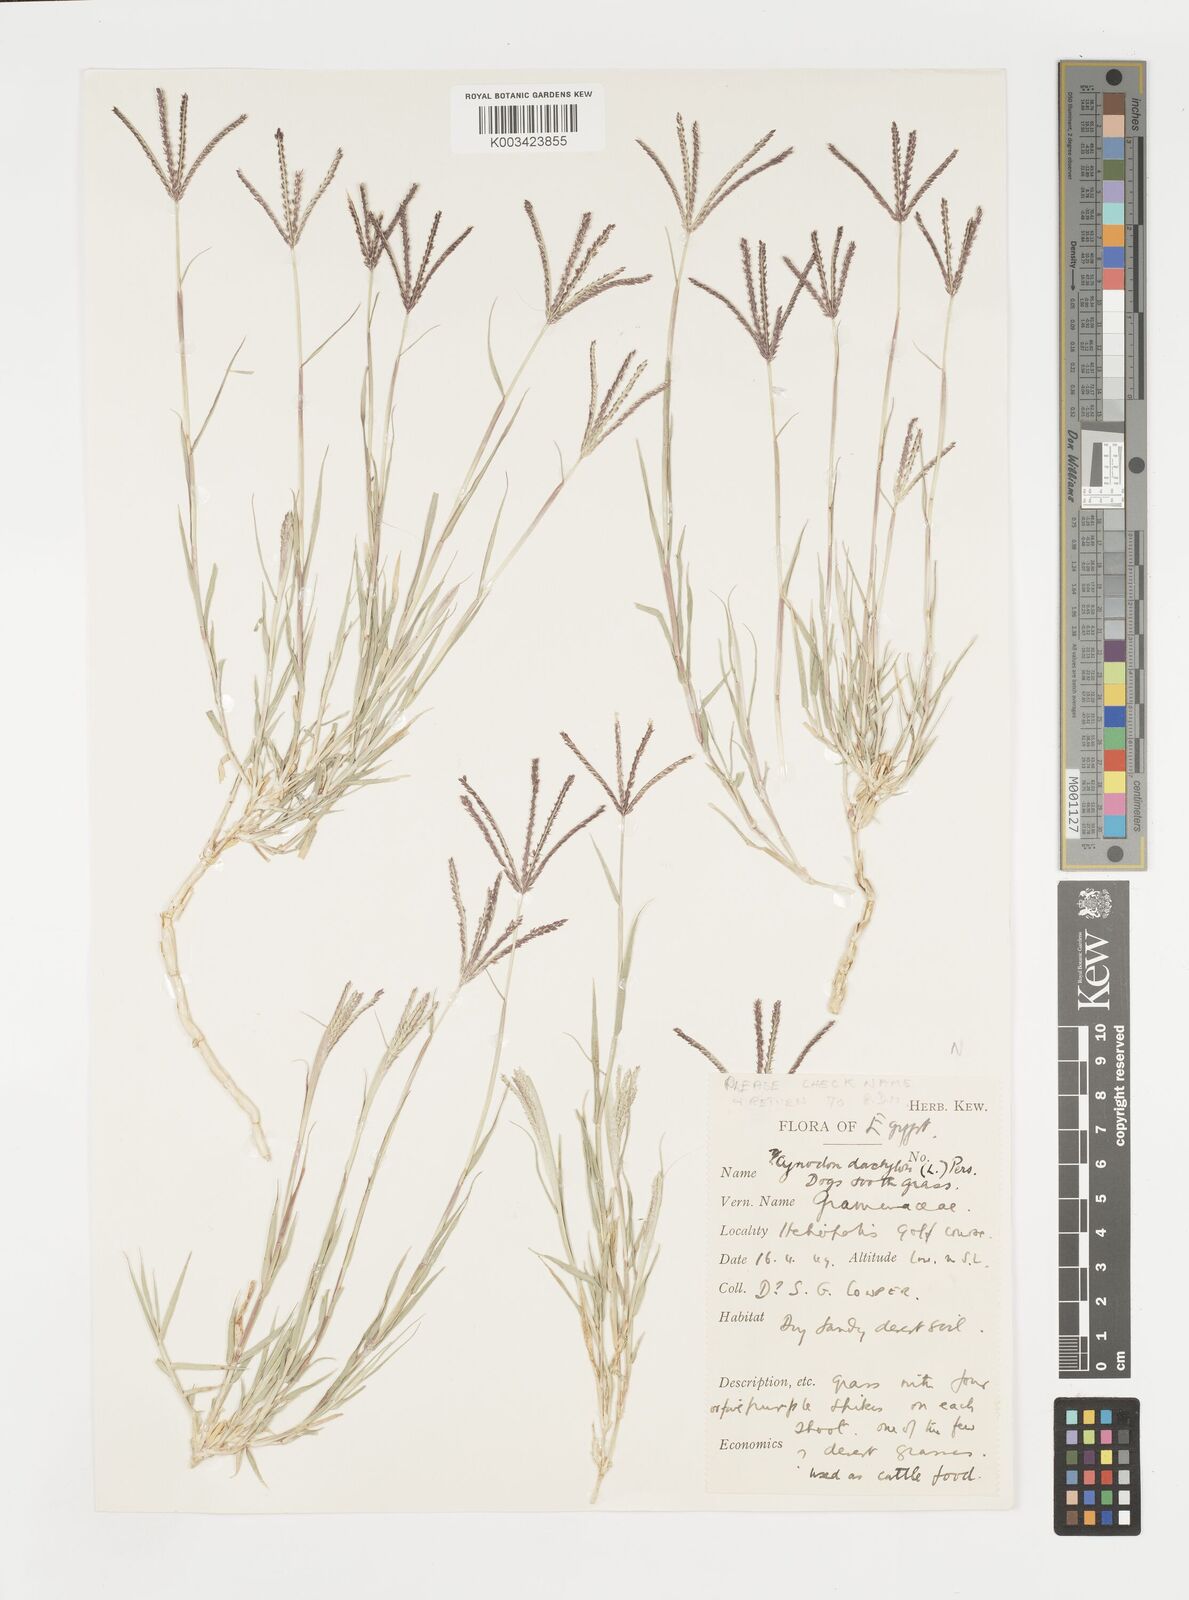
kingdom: Plantae
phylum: Tracheophyta
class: Liliopsida
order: Poales
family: Poaceae
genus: Cynodon
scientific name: Cynodon dactylon
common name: Bermuda grass
